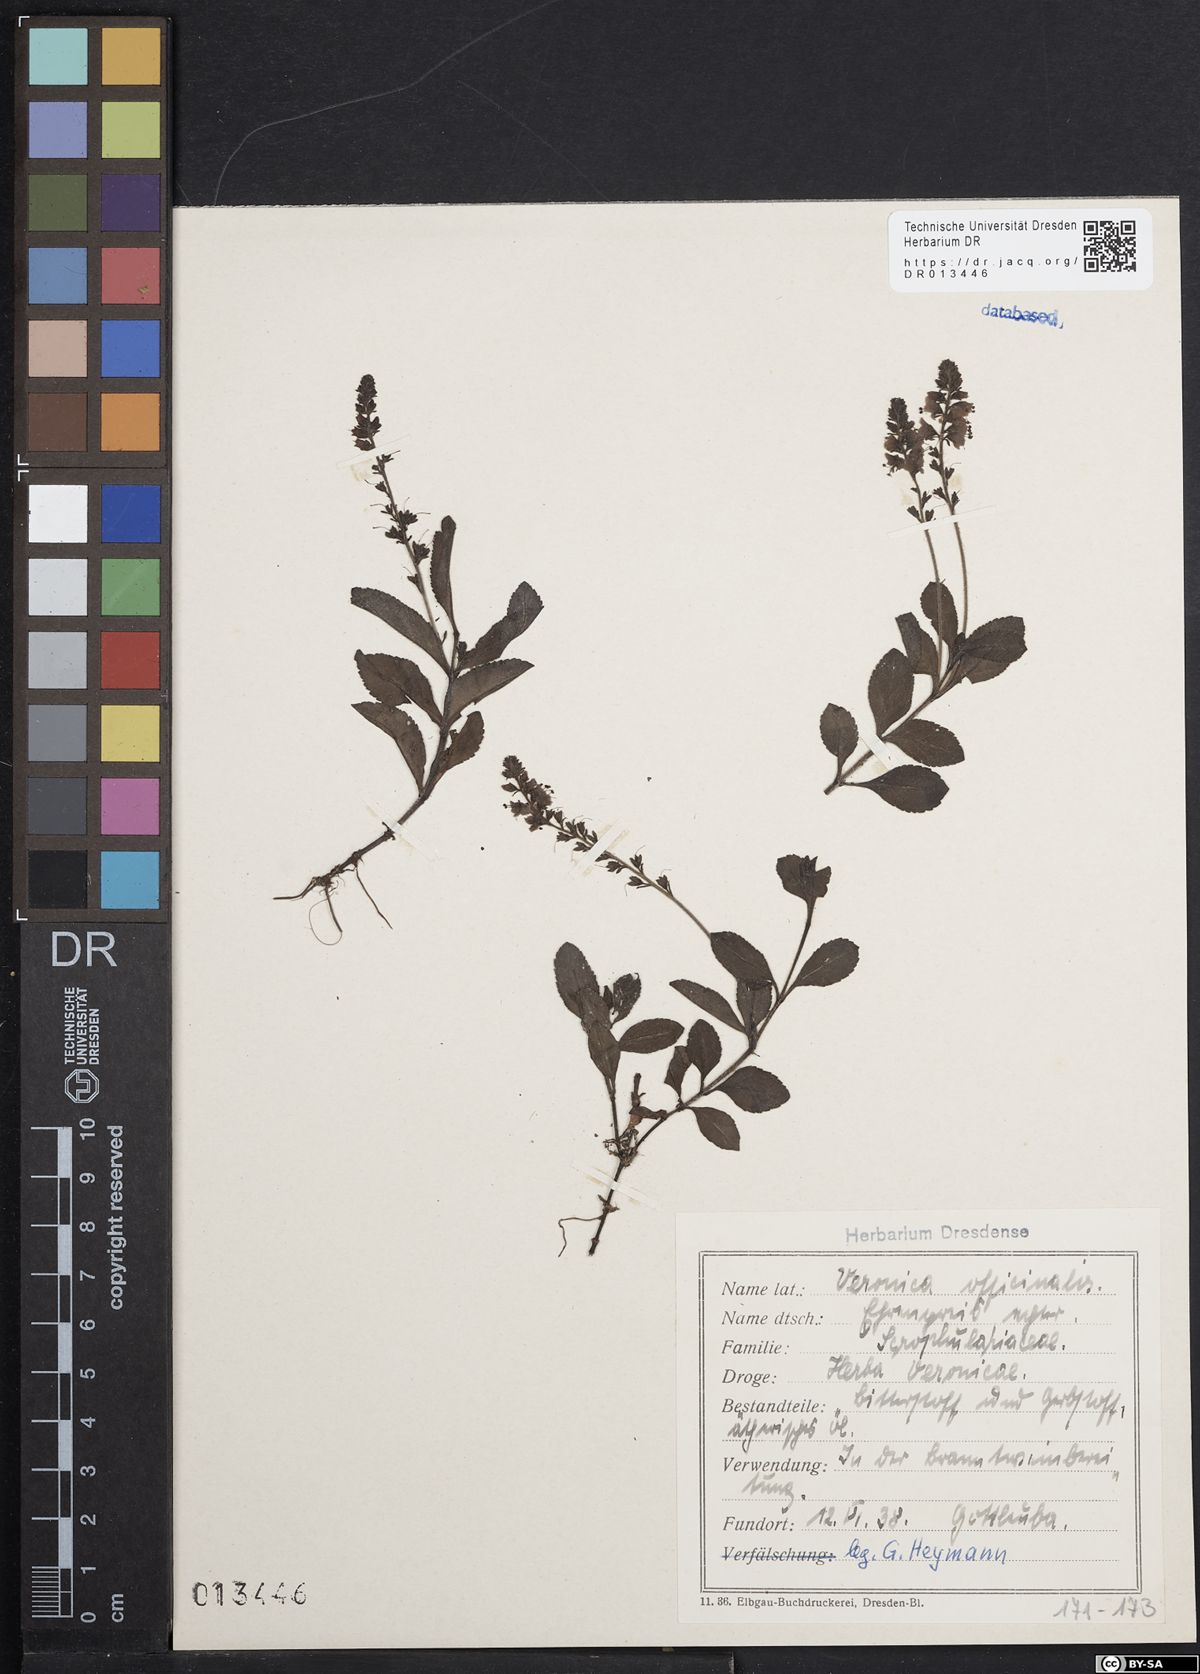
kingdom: Plantae
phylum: Tracheophyta
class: Magnoliopsida
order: Lamiales
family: Plantaginaceae
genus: Veronica
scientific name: Veronica officinalis
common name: Common speedwell
